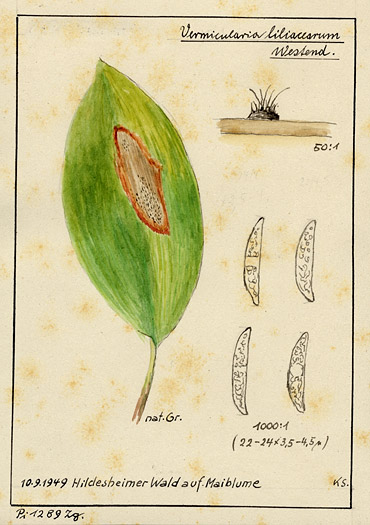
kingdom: Plantae
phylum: Tracheophyta
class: Liliopsida
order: Asparagales
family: Asparagaceae
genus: Convallaria
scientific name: Convallaria
